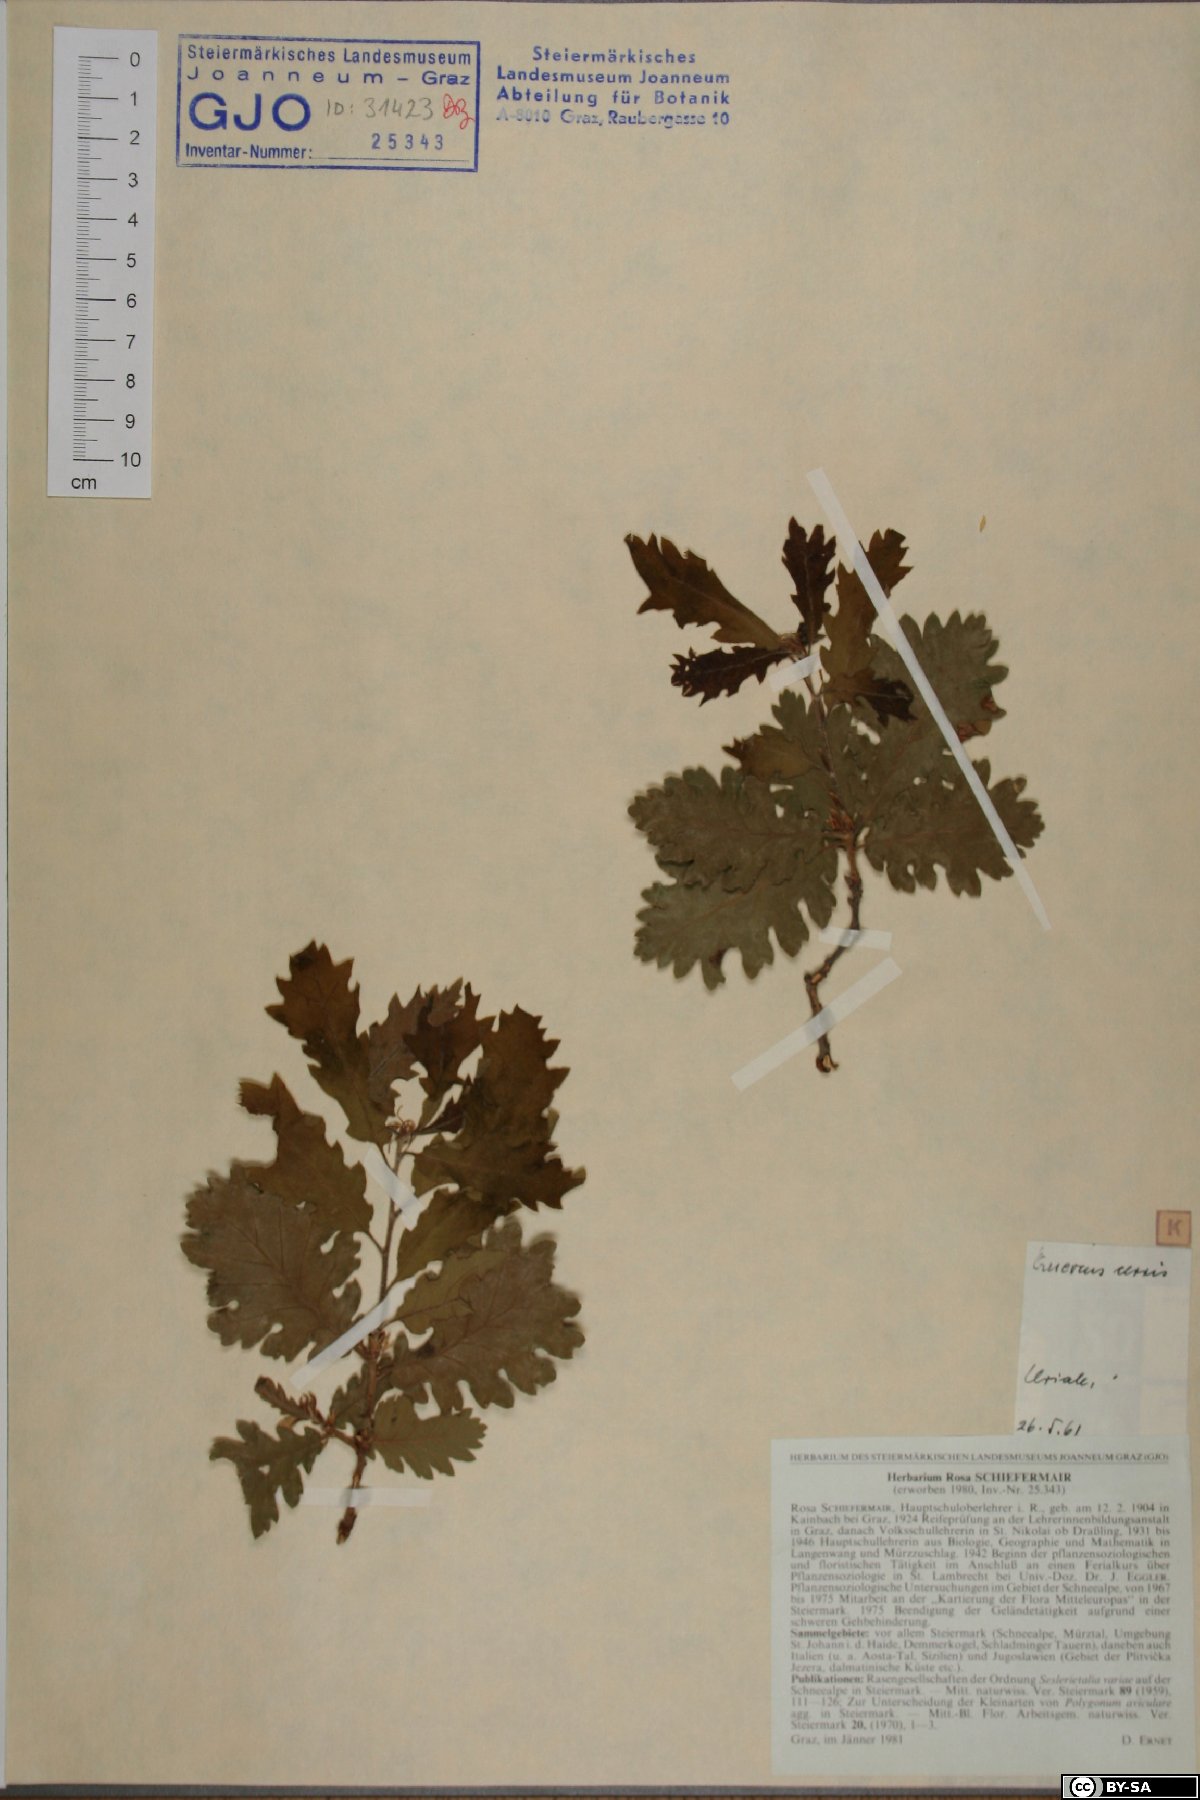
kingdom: Plantae
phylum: Tracheophyta
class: Magnoliopsida
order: Fagales
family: Fagaceae
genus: Quercus
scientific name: Quercus cerris
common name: Turkey oak
